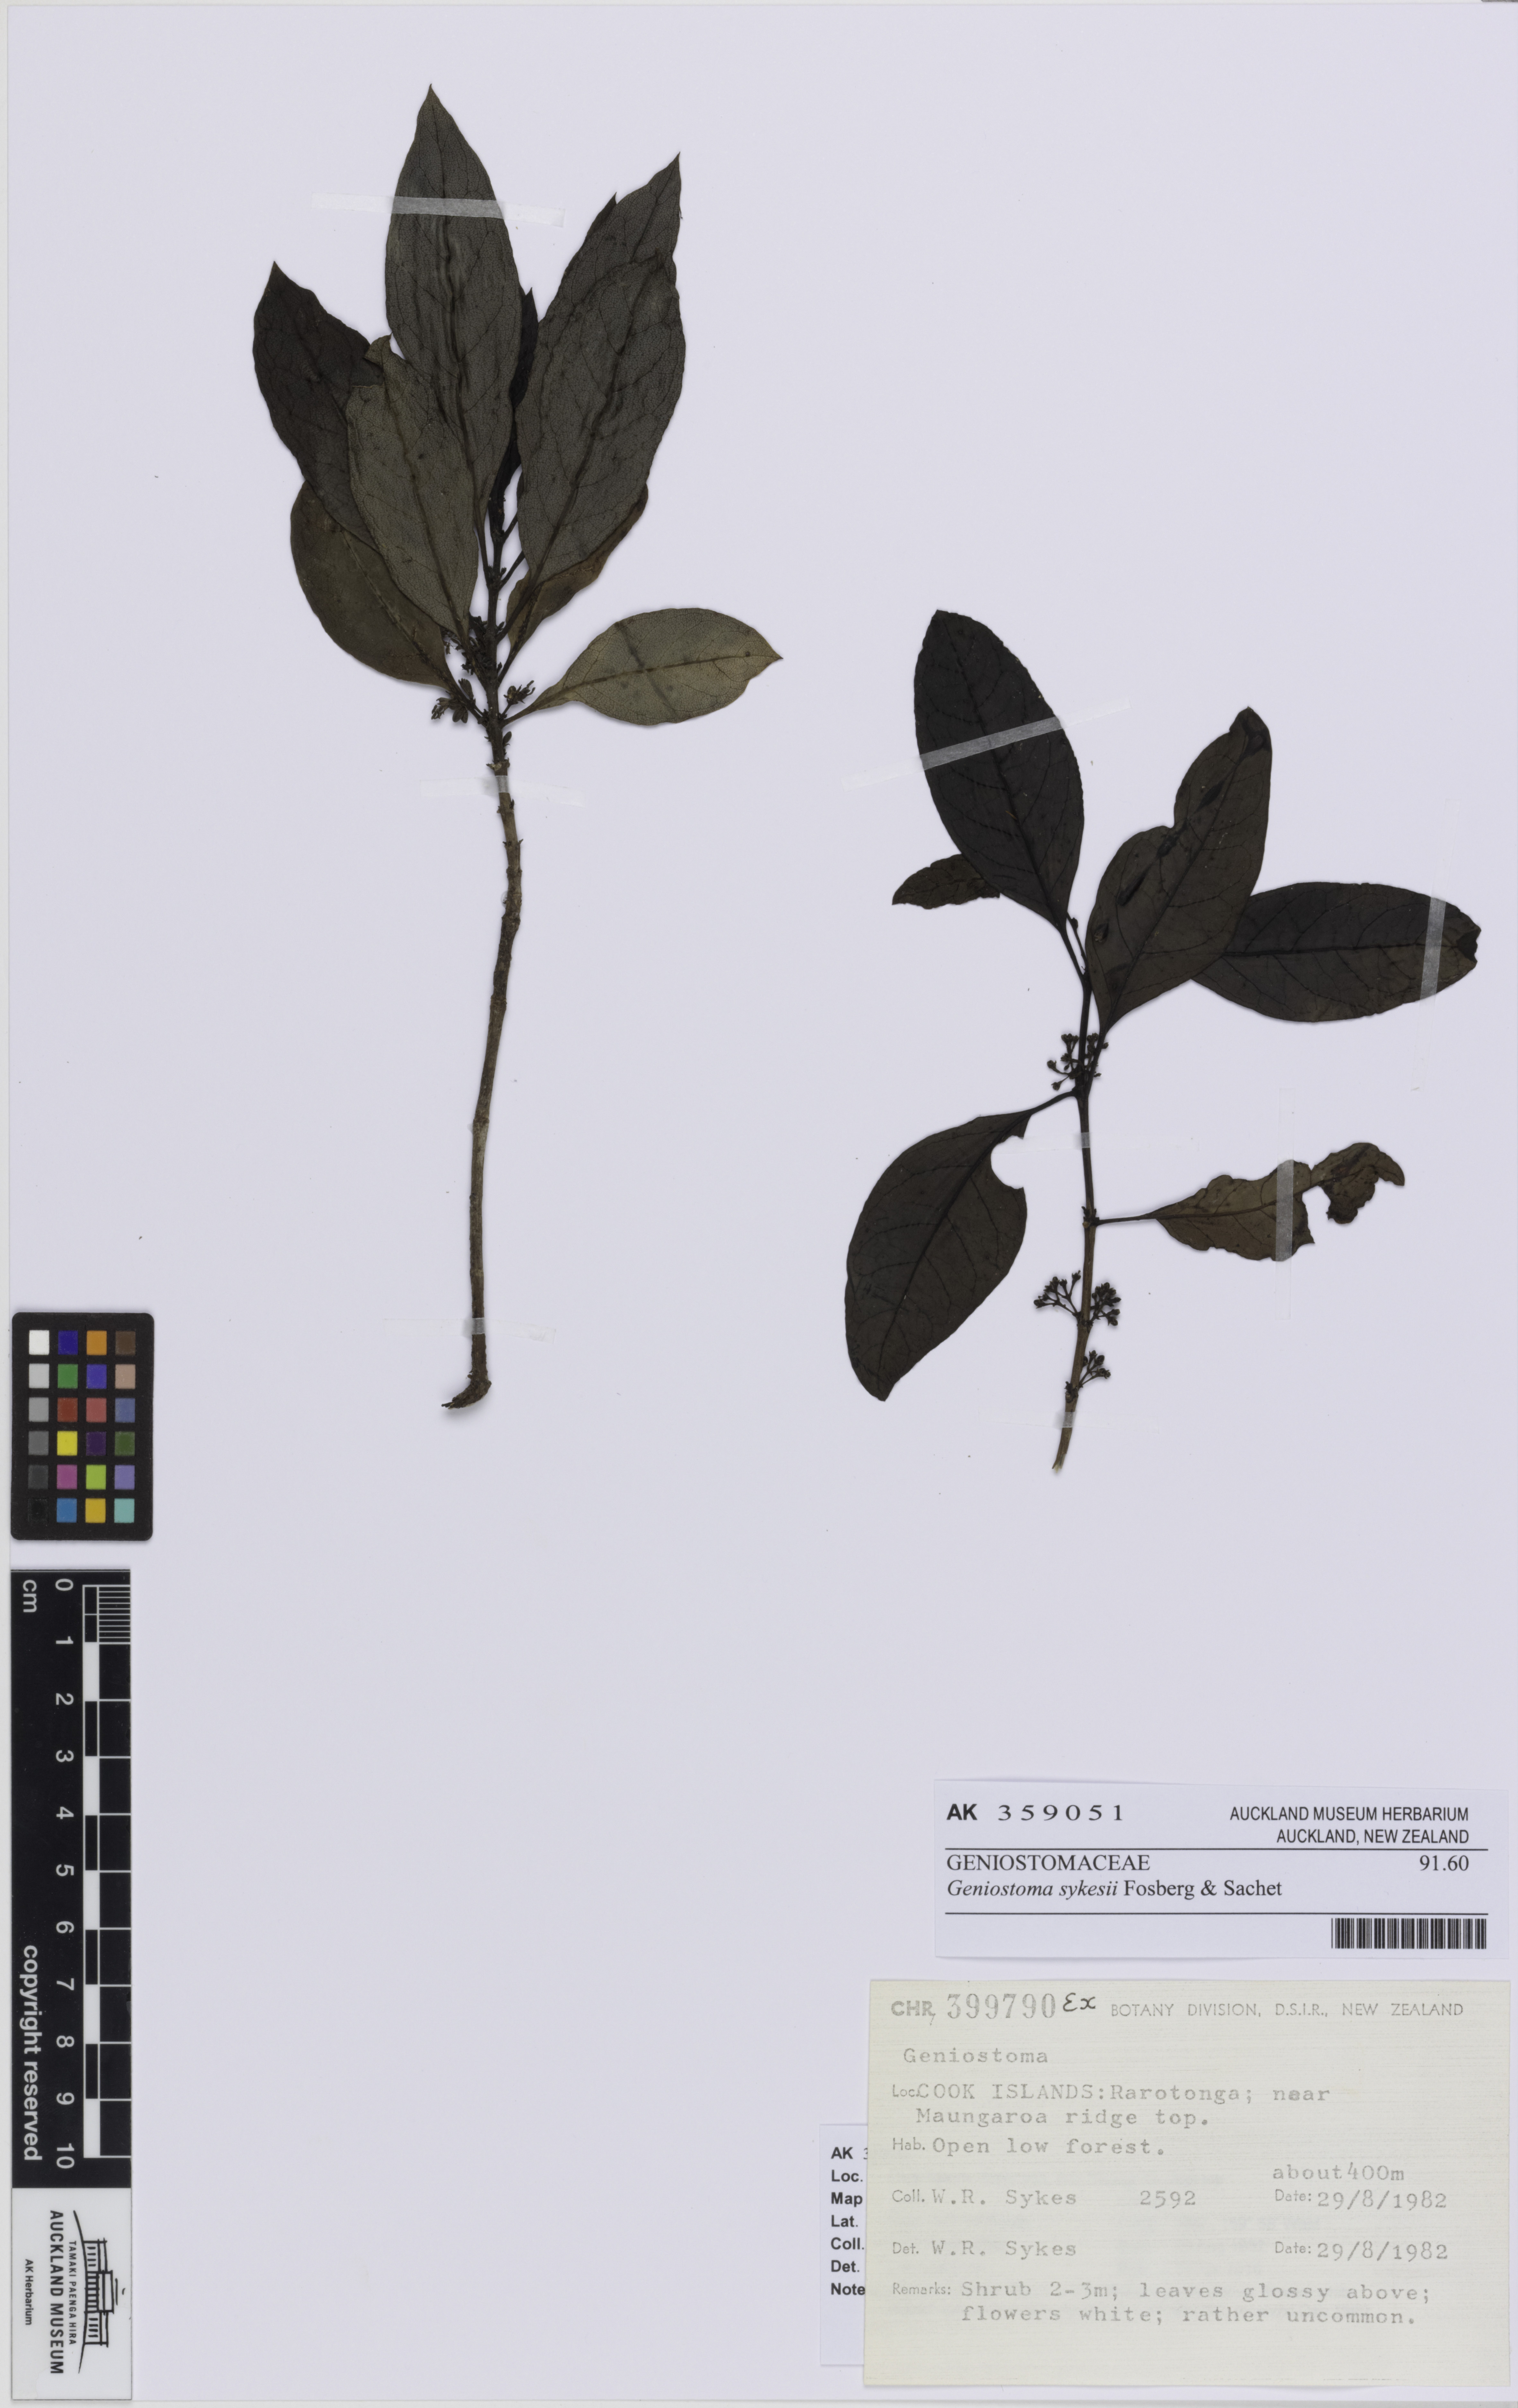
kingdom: Plantae
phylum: Tracheophyta
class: Magnoliopsida
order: Gentianales
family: Rubiaceae
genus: Coprosma
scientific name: Coprosma laevigata
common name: Rarotongan coprosma
